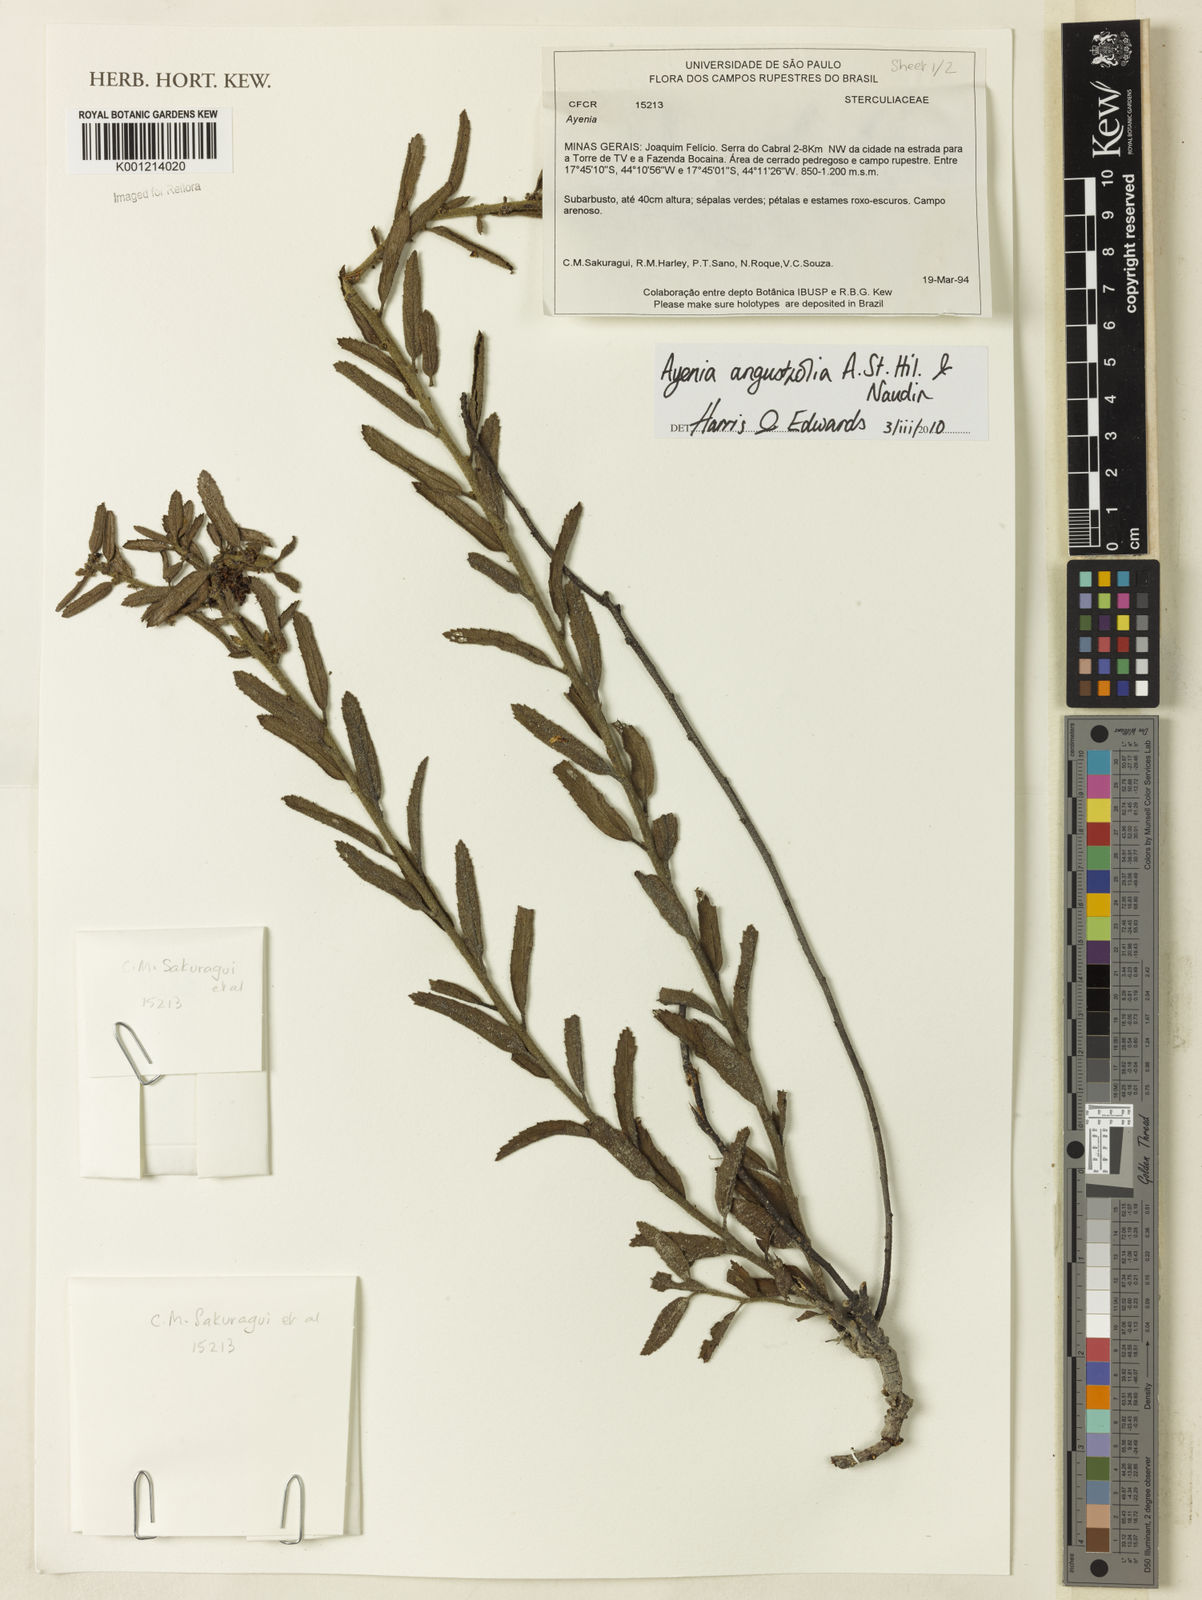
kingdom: Plantae
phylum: Tracheophyta
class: Magnoliopsida
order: Malvales
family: Malvaceae
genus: Ayenia
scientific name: Ayenia angustifolia
